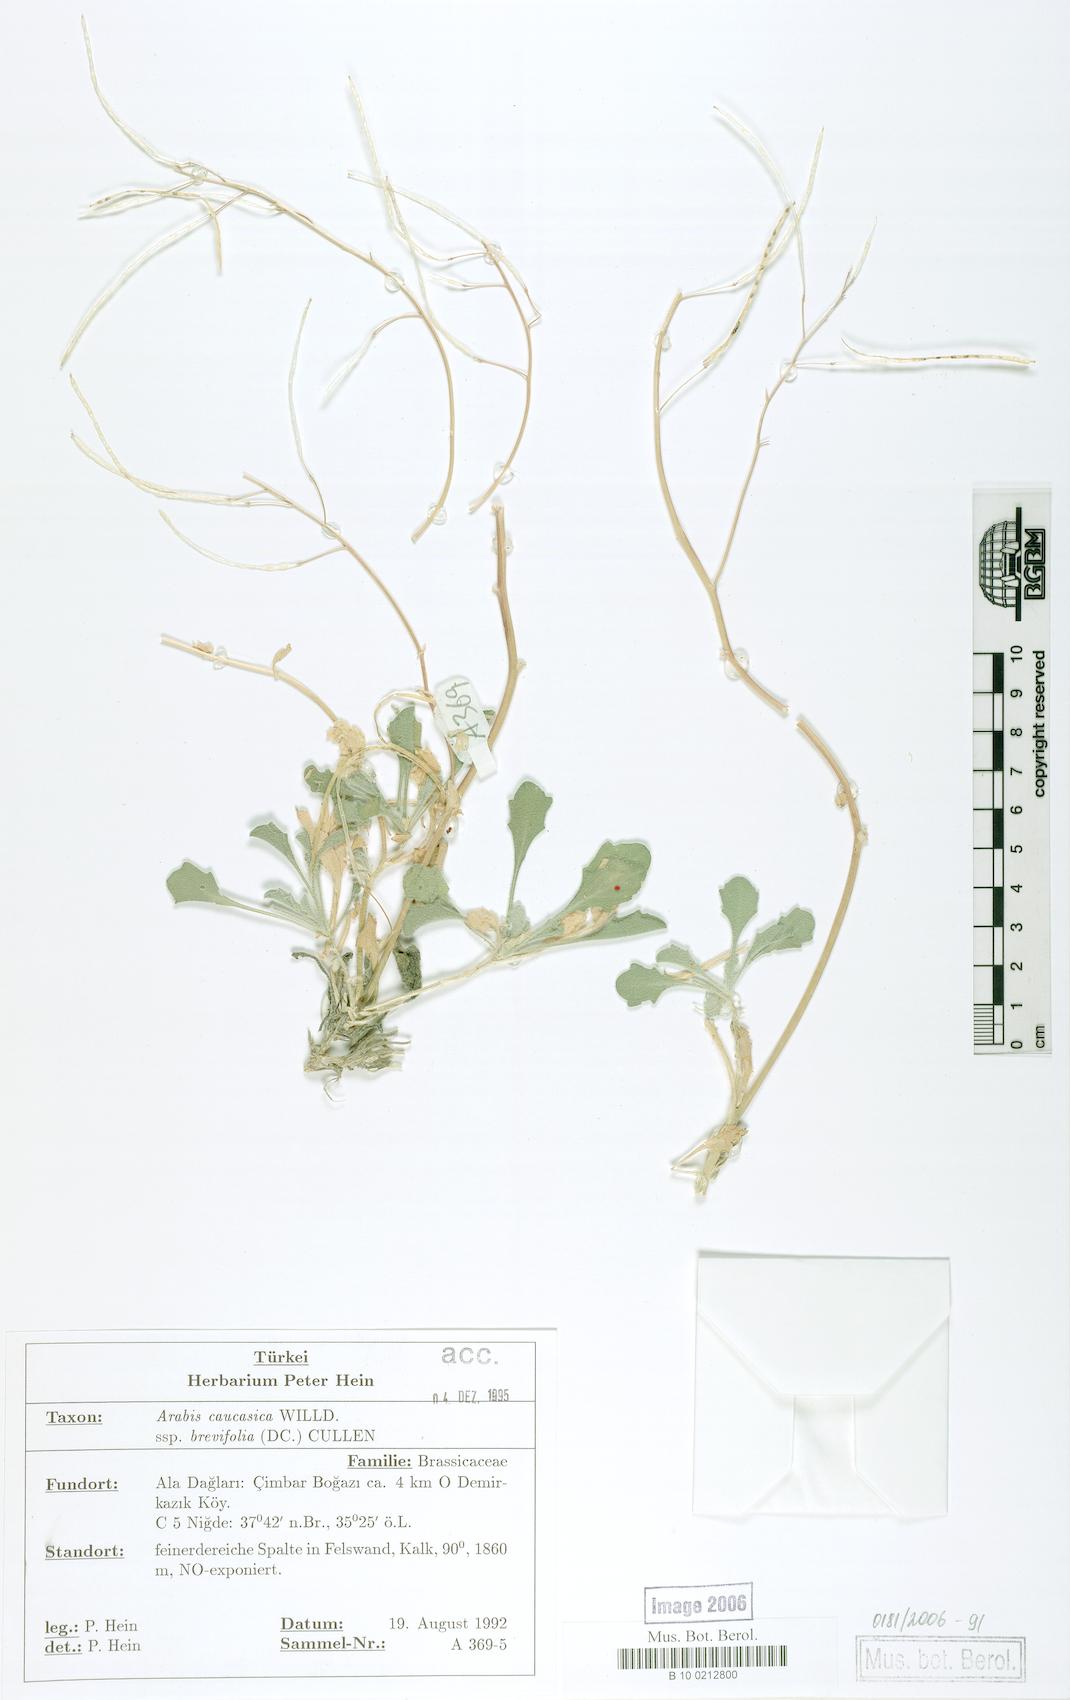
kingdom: Plantae
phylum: Tracheophyta
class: Magnoliopsida
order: Brassicales
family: Brassicaceae
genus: Arabis
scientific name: Arabis caucasica
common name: Gray rockcress
